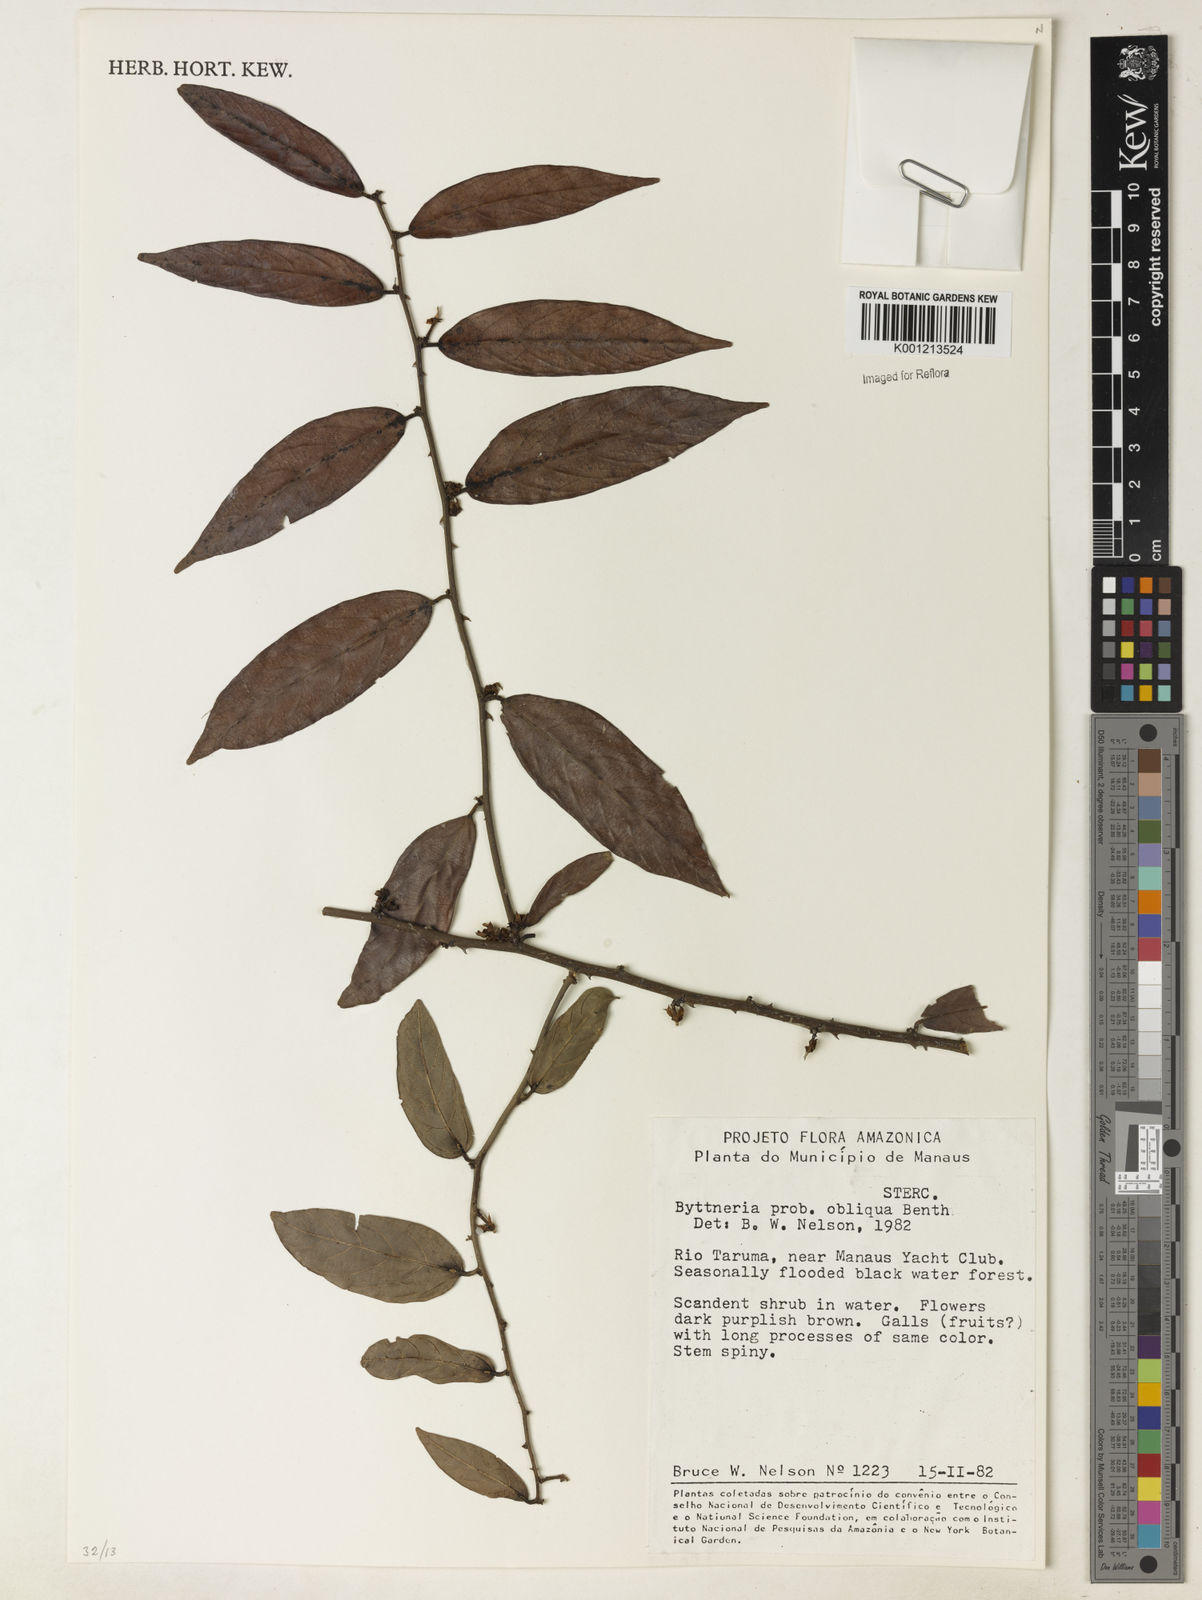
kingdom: Plantae
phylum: Tracheophyta
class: Magnoliopsida
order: Malvales
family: Malvaceae
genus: Byttneria
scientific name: Byttneria obliqua
